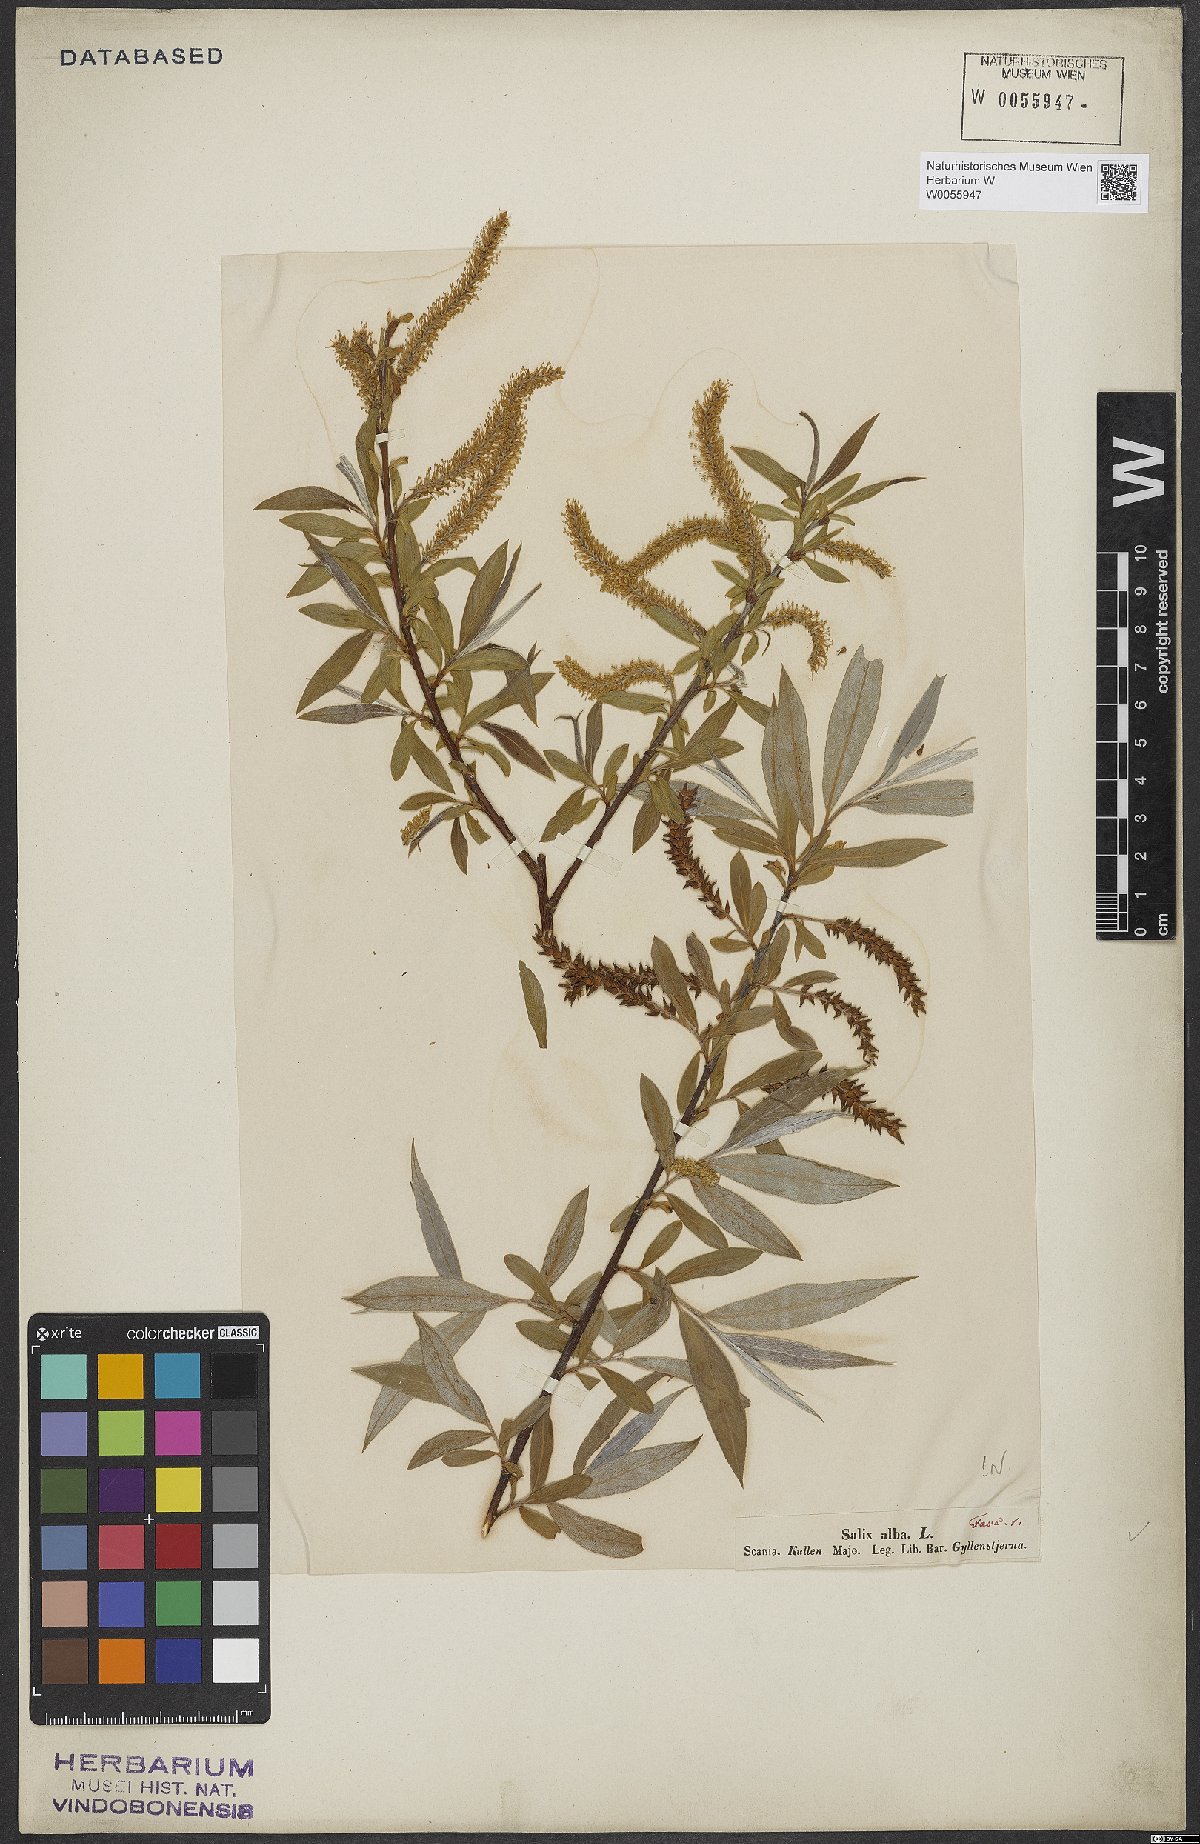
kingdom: Plantae
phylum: Tracheophyta
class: Magnoliopsida
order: Malpighiales
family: Salicaceae
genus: Salix
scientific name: Salix alba
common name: White willow
